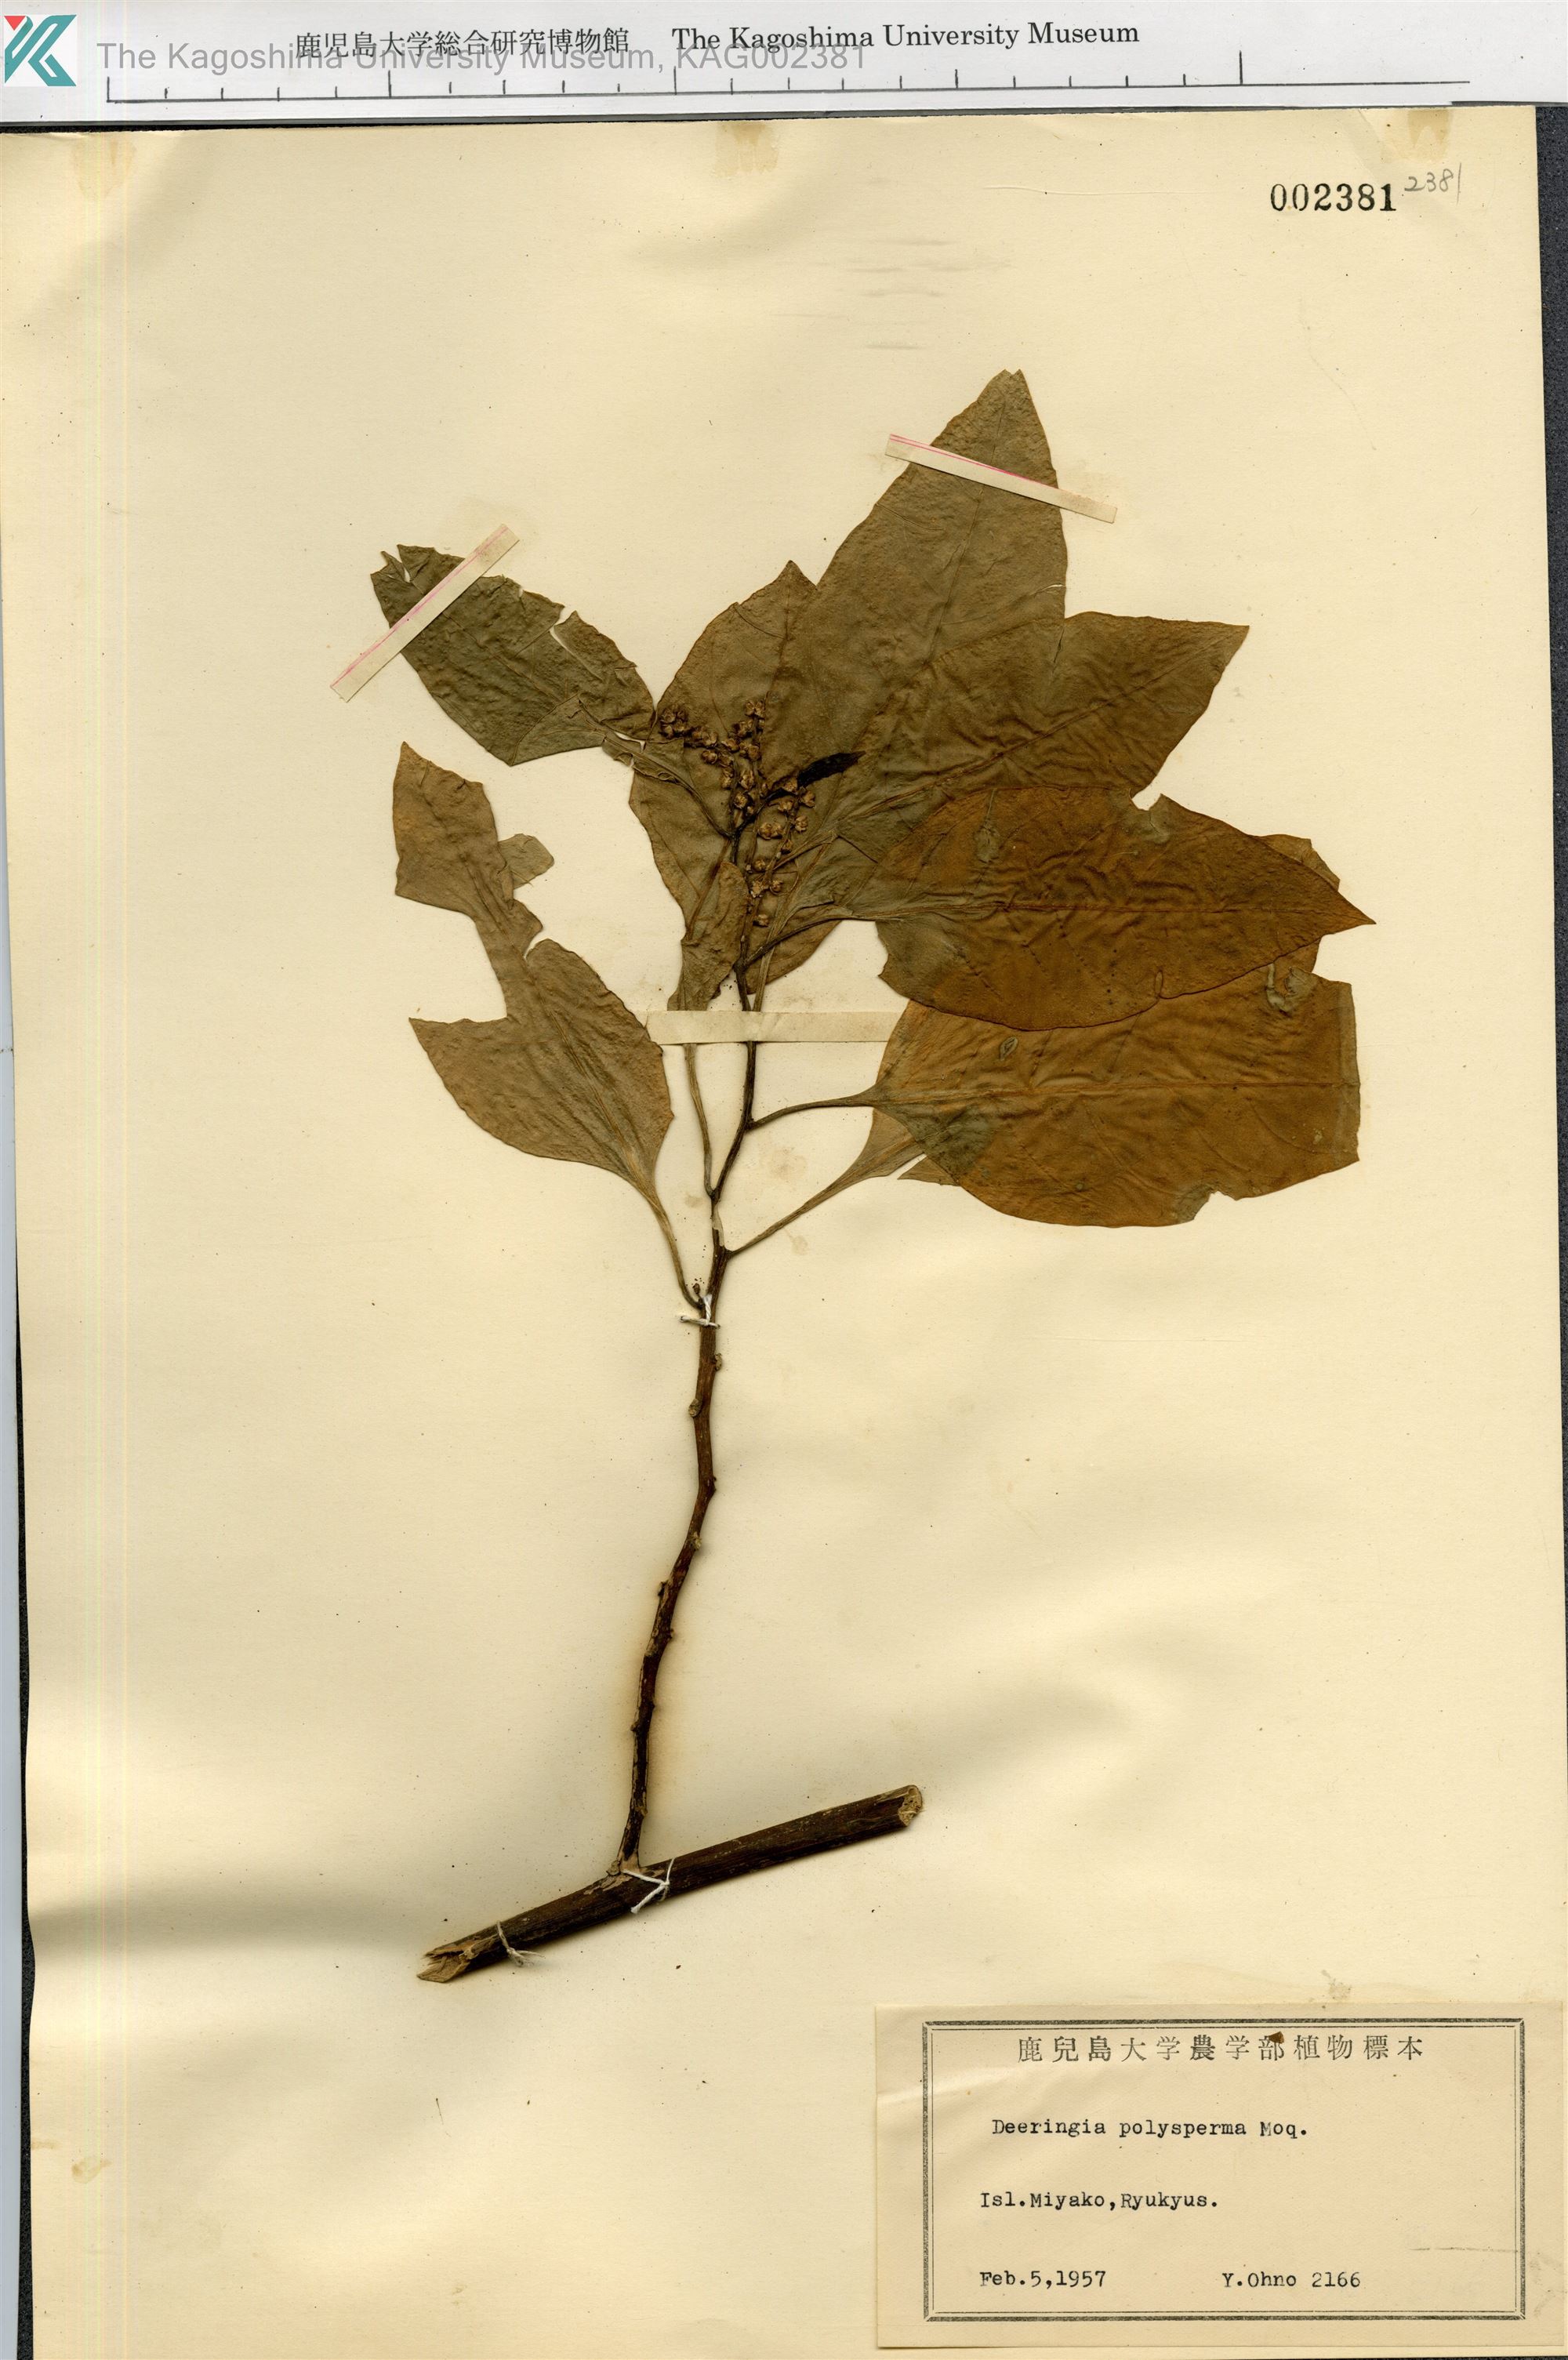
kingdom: Plantae
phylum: Tracheophyta
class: Magnoliopsida
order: Caryophyllales
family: Amaranthaceae
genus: Deeringia
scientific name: Deeringia polysperma
